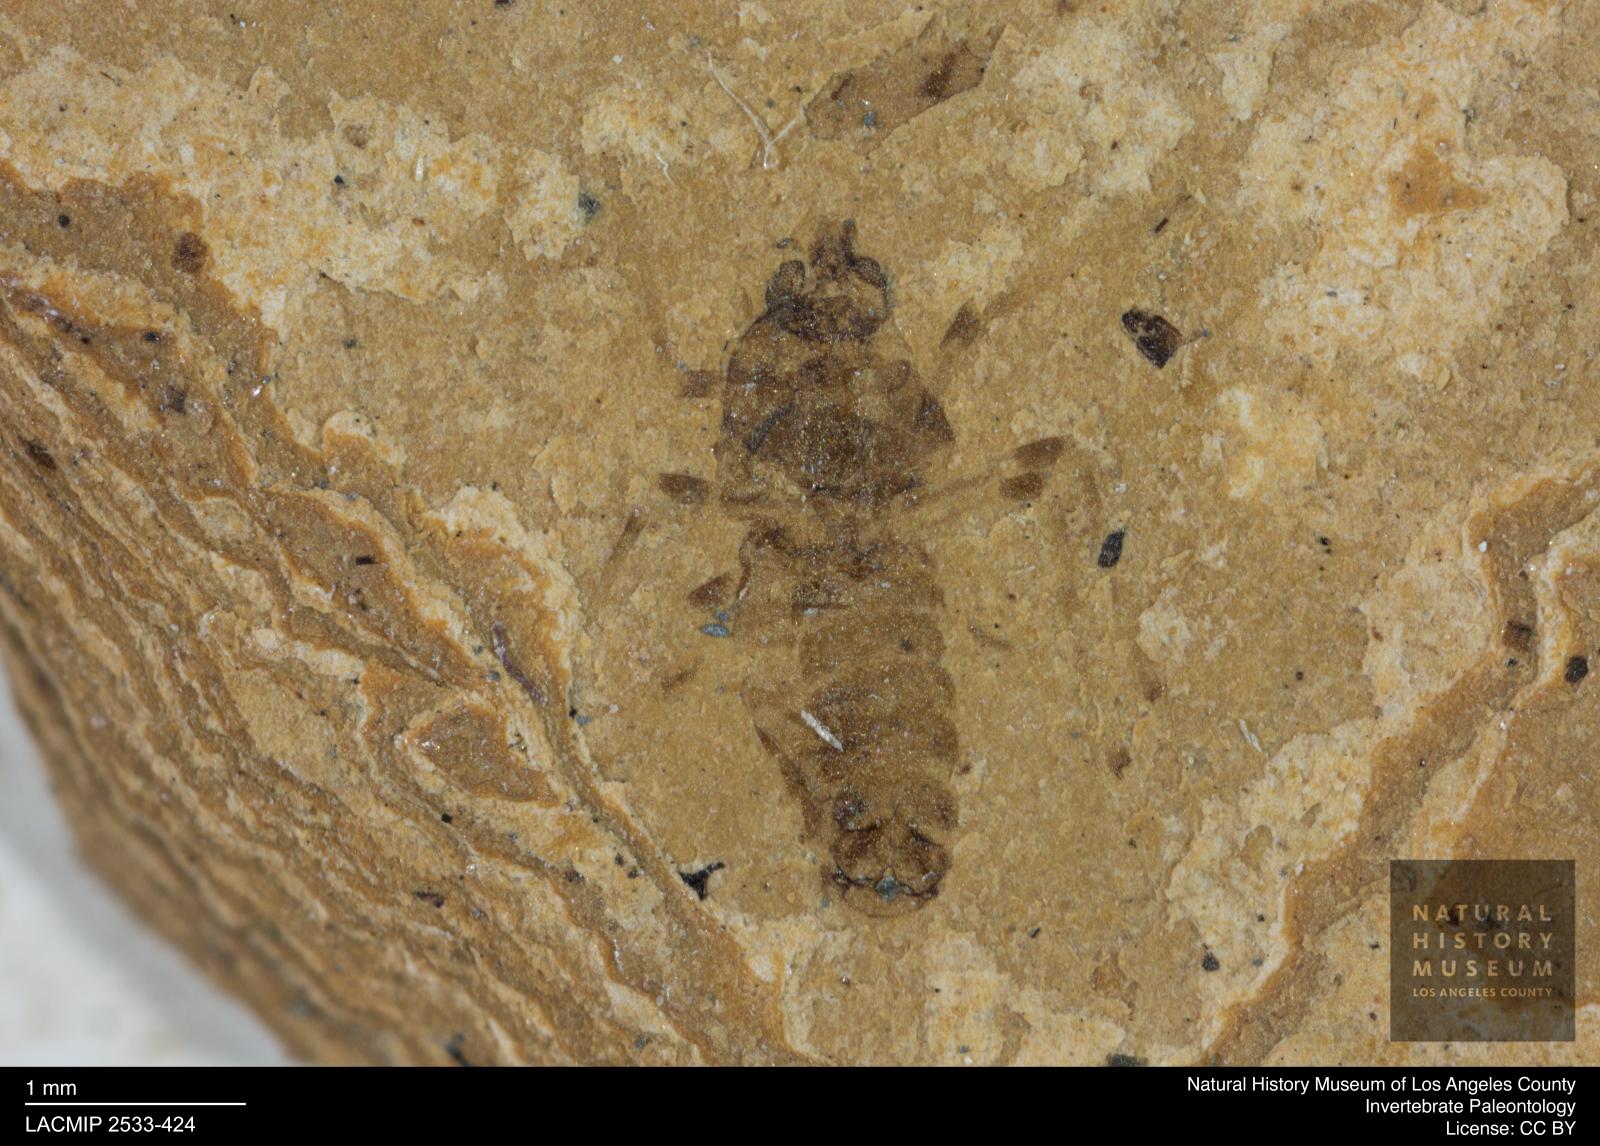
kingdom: Animalia
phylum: Arthropoda
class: Insecta
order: Diptera
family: Chironomidae
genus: Tanypus
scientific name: Tanypus pagasti
